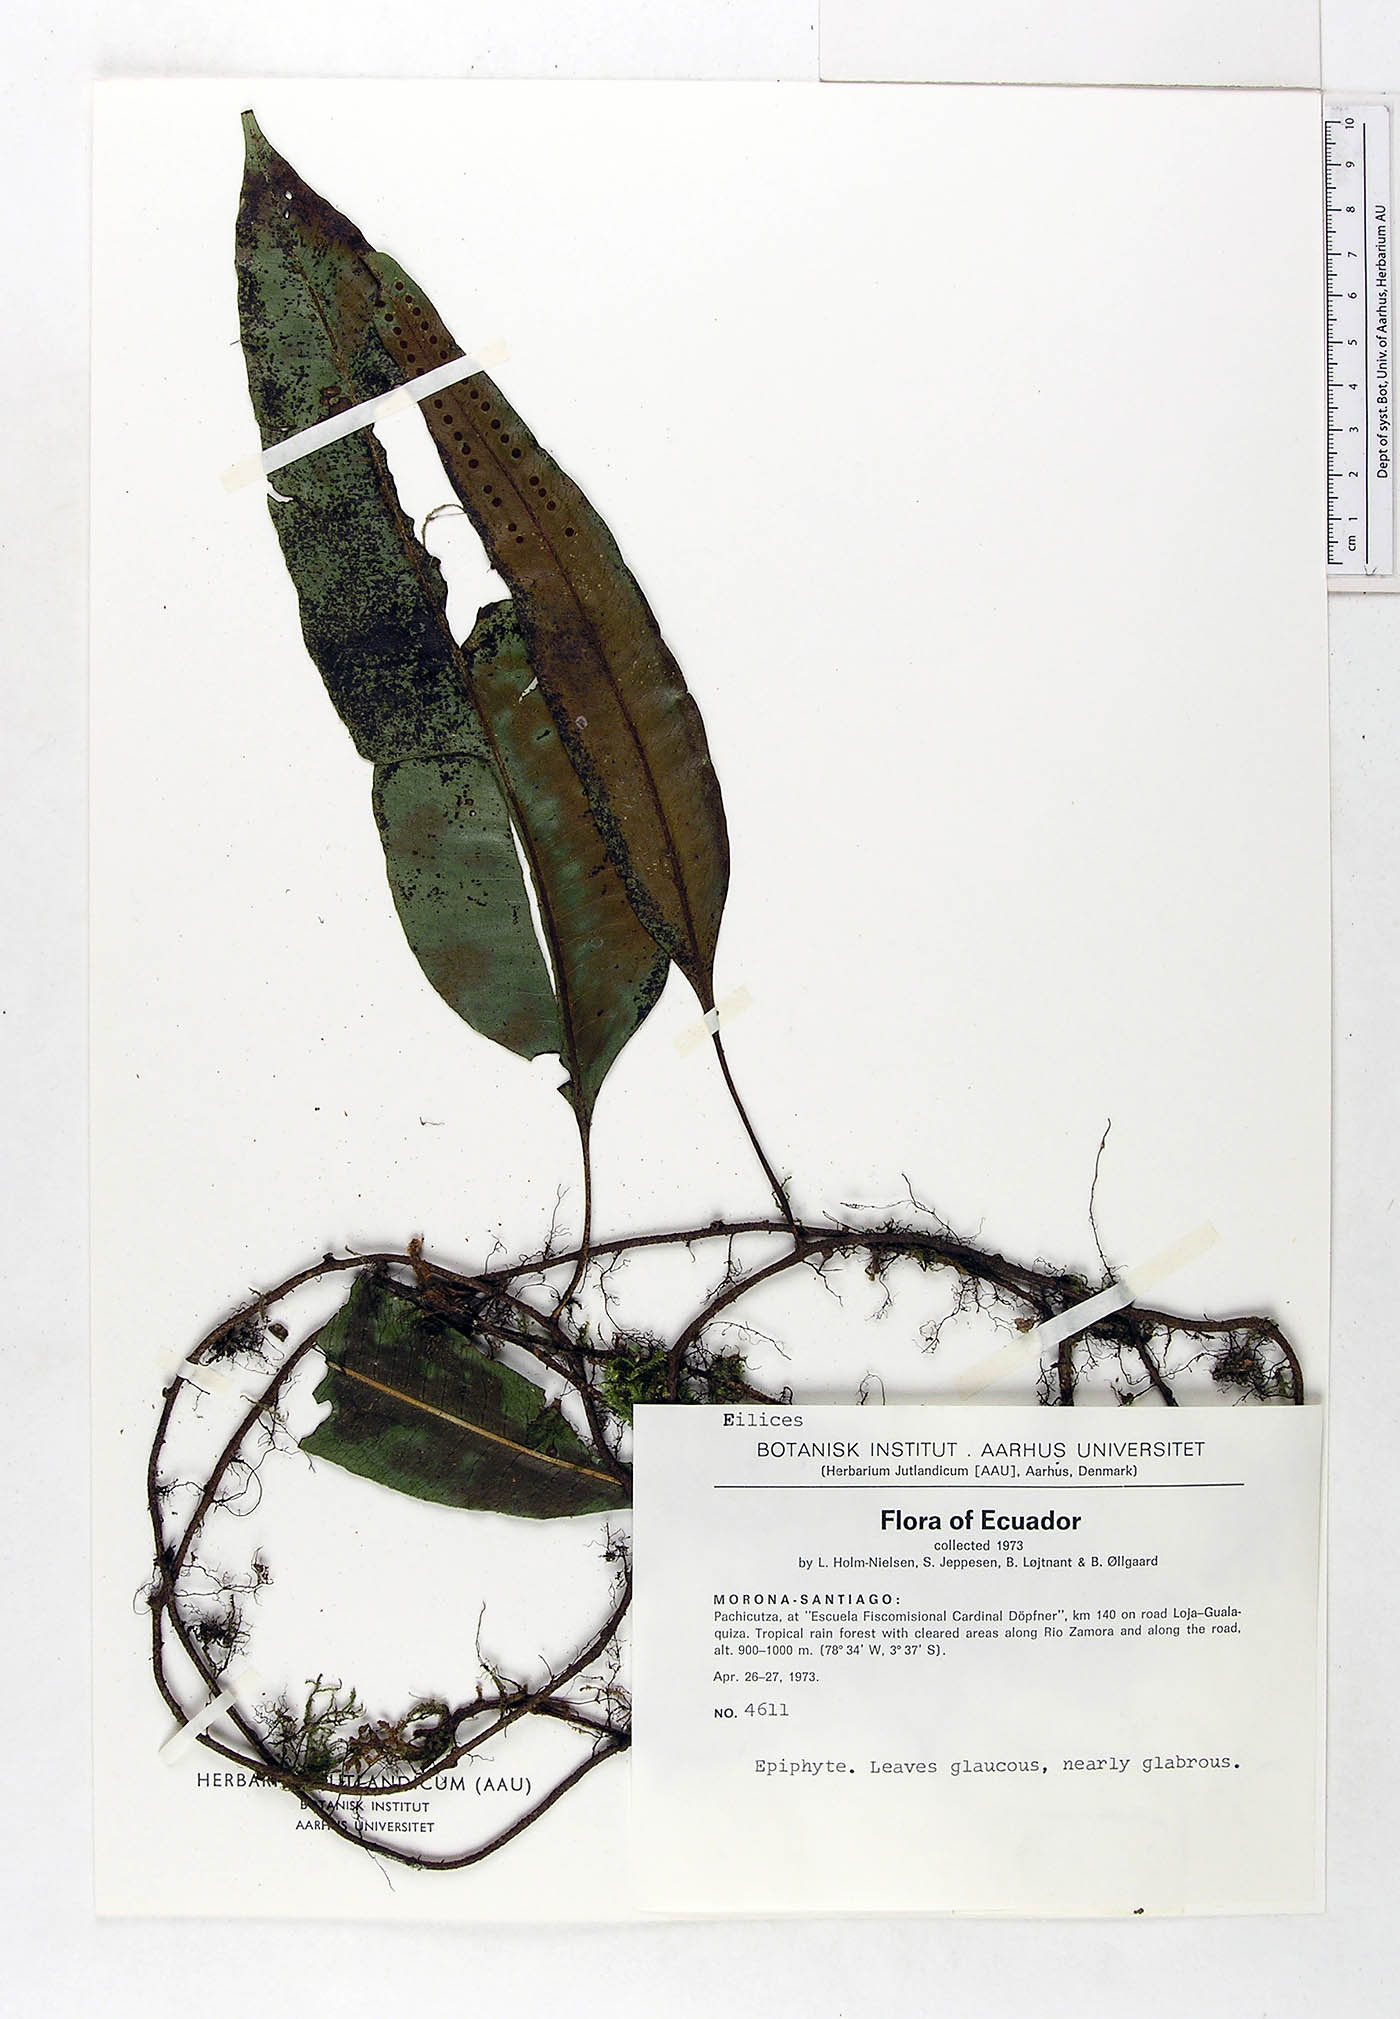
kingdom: Plantae
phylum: Tracheophyta
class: Polypodiopsida
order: Polypodiales
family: Polypodiaceae
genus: Microgramma
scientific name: Microgramma percussa
